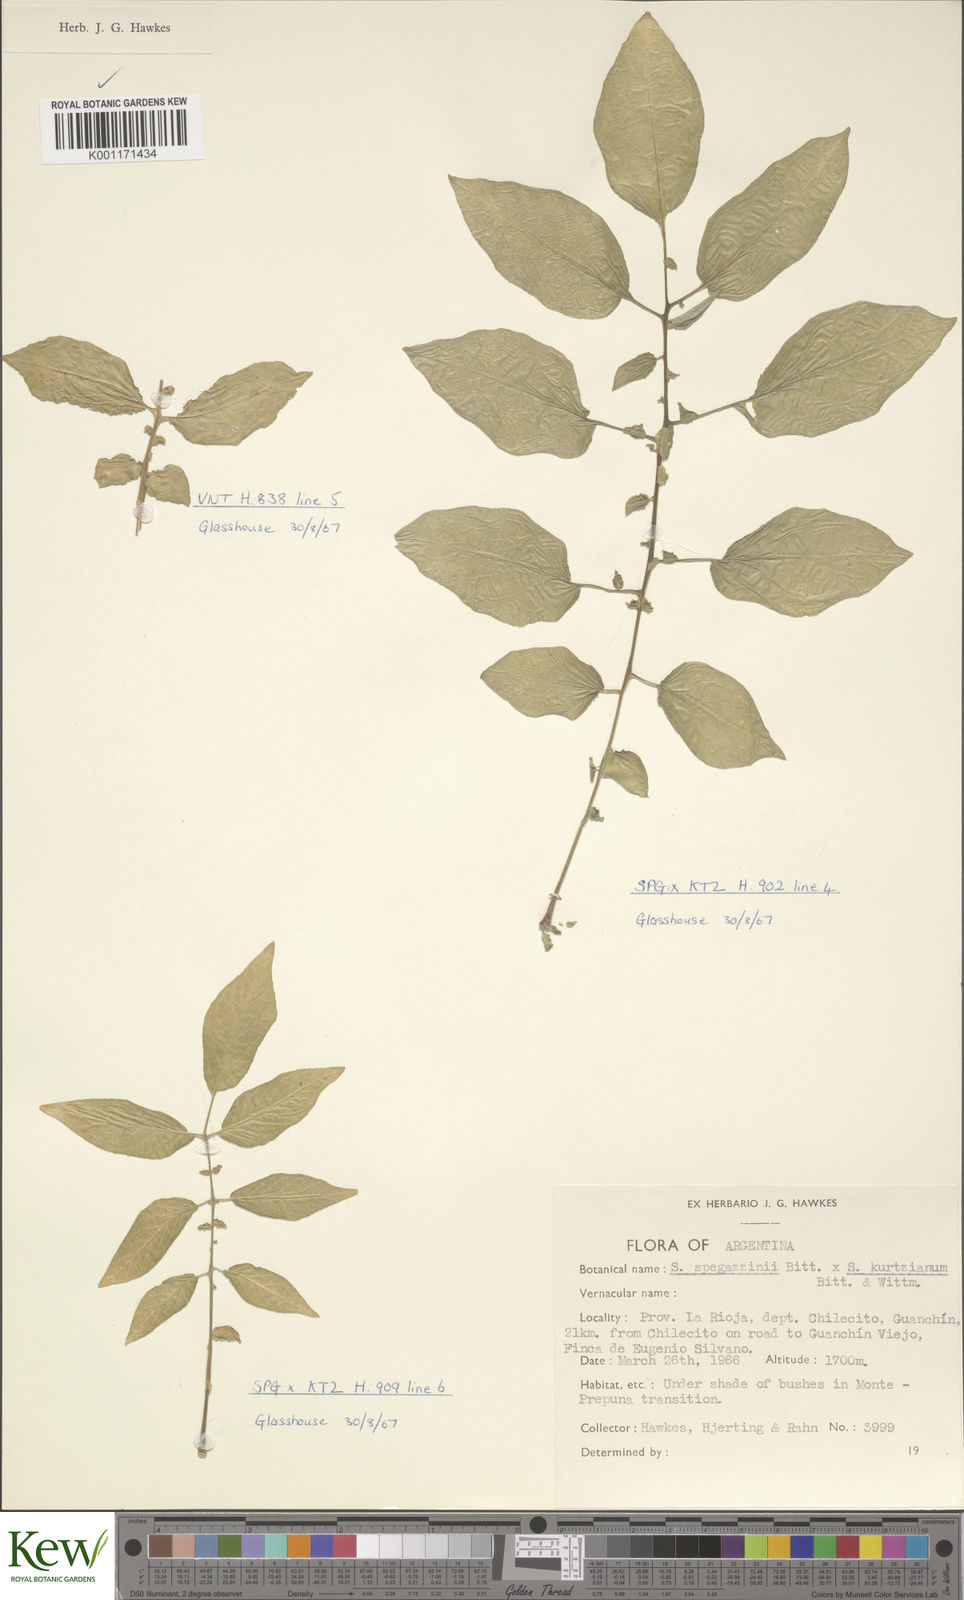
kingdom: Plantae
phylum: Tracheophyta
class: Magnoliopsida
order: Solanales
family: Solanaceae
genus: Solanum
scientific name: Solanum brevicaule
